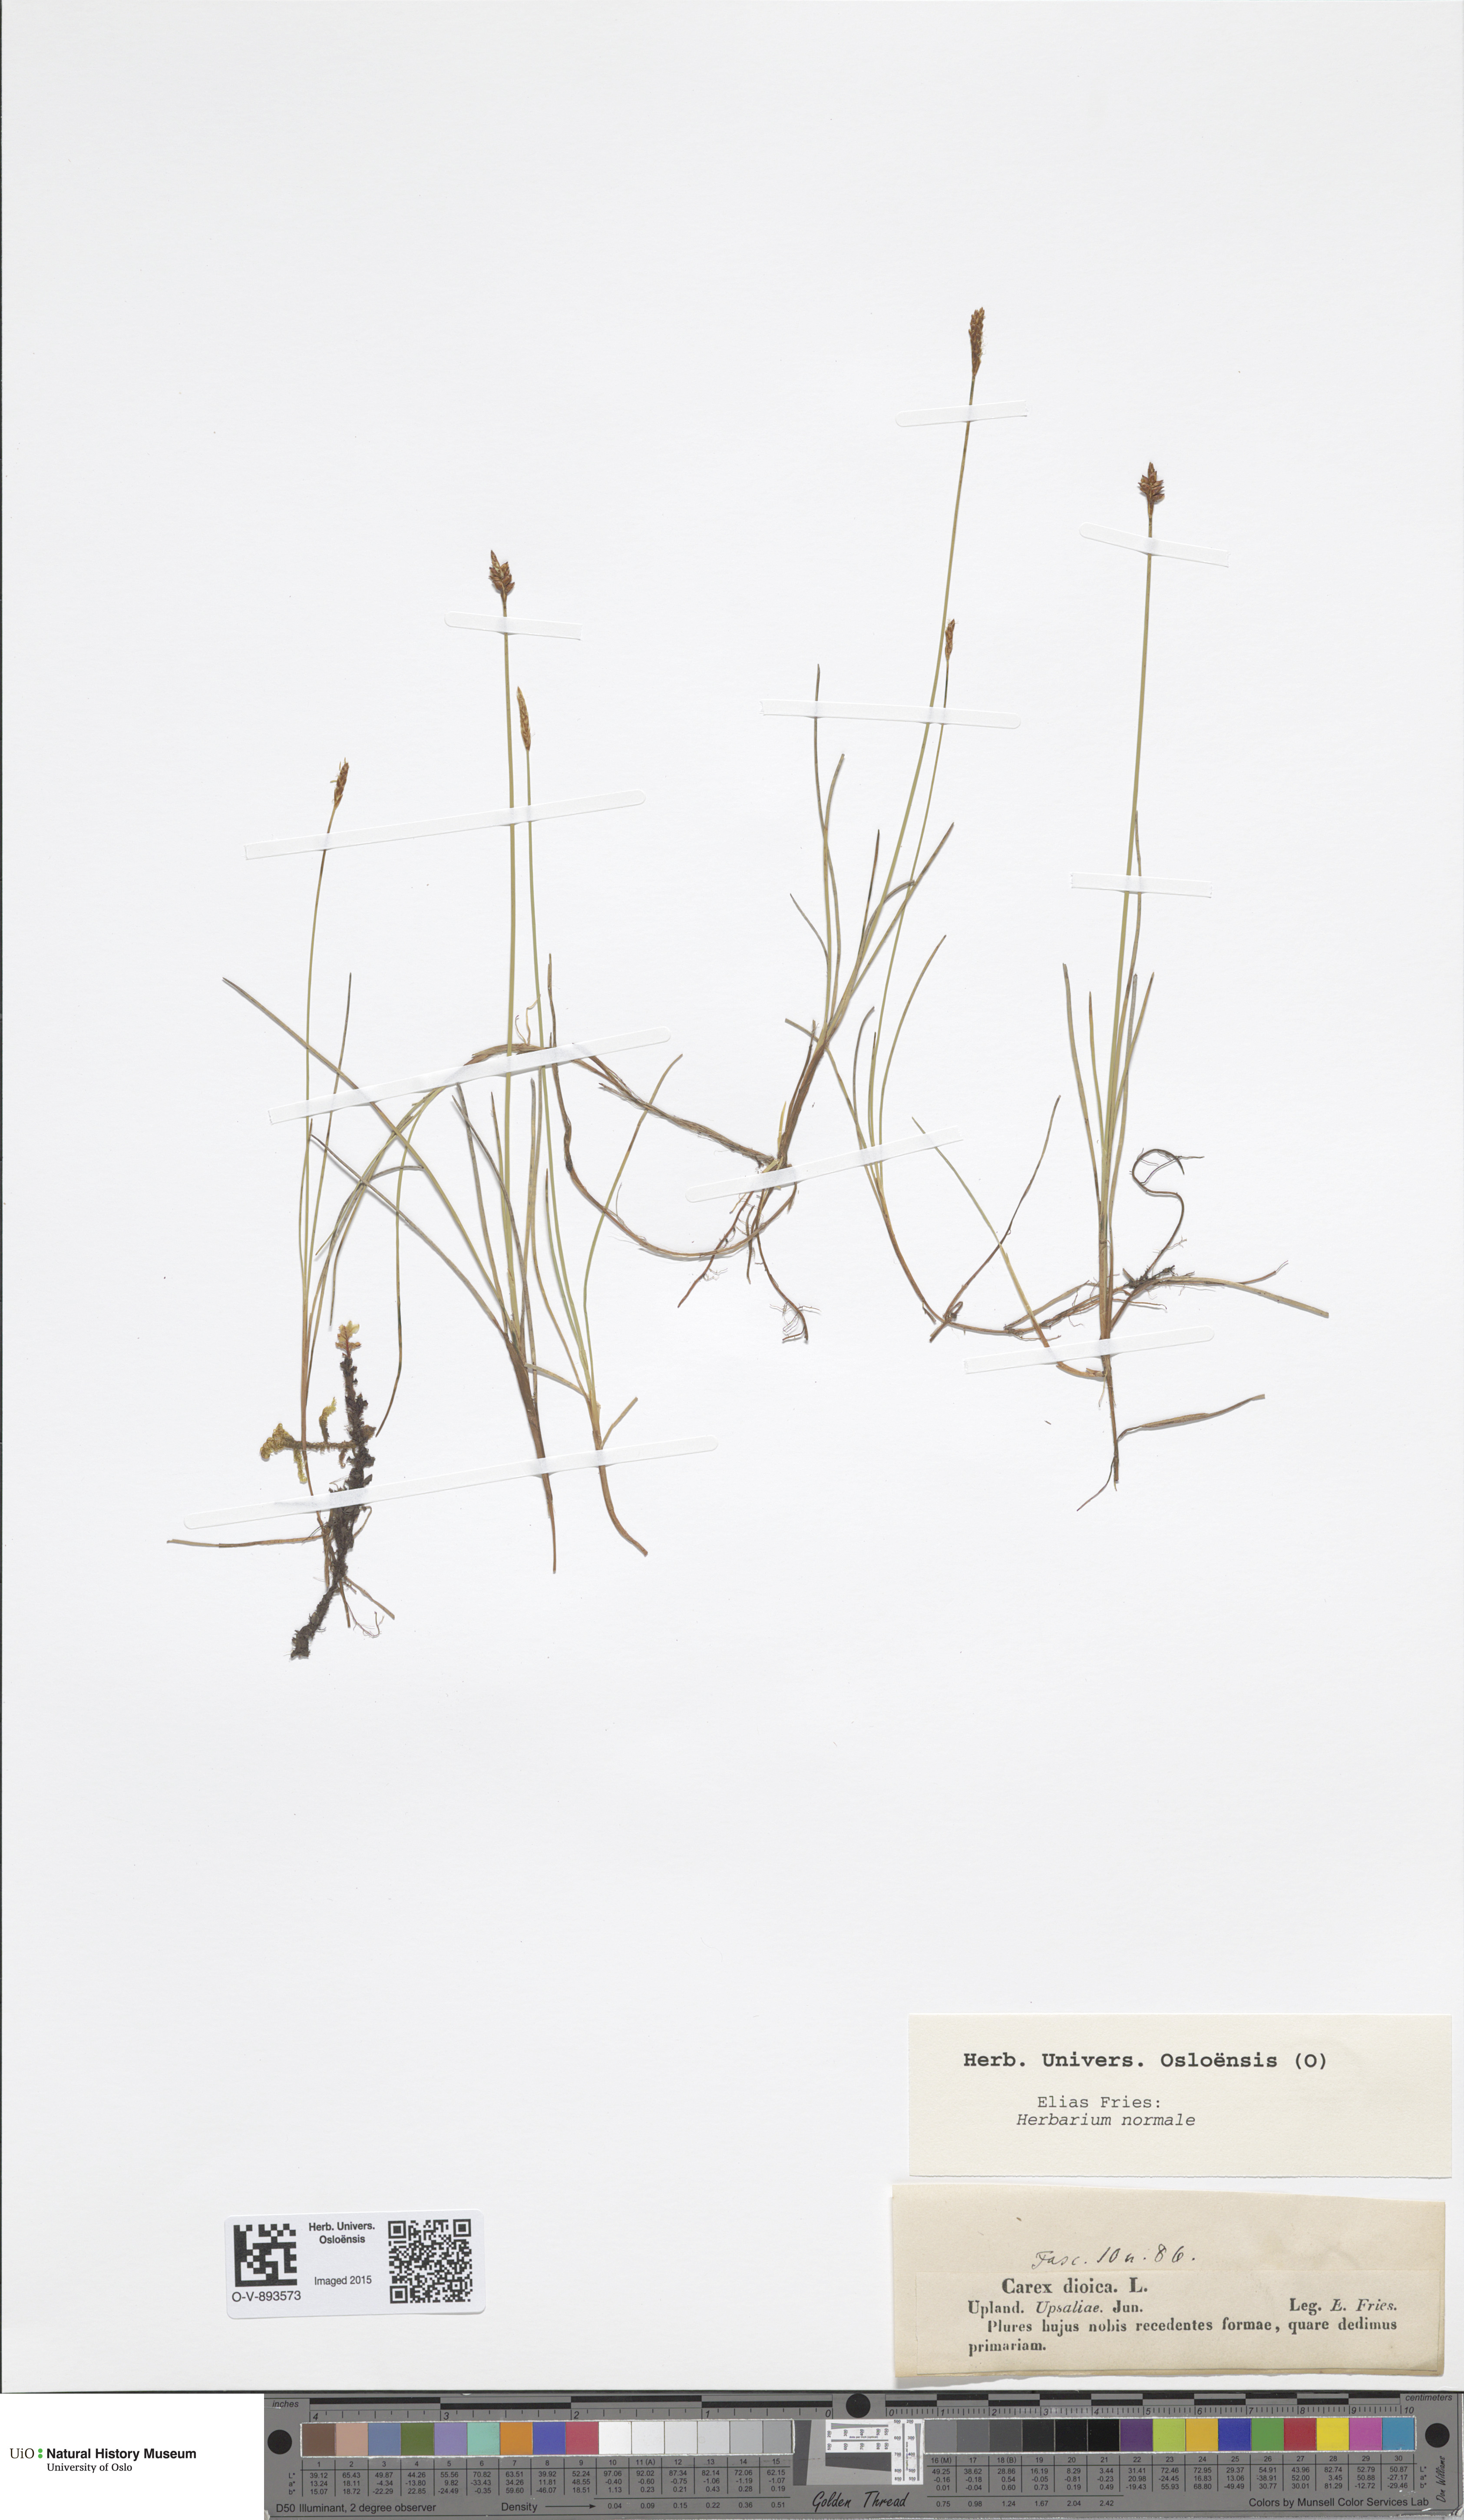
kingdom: Plantae
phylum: Tracheophyta
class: Liliopsida
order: Poales
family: Cyperaceae
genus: Carex
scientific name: Carex dioica
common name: Dioecious sedge
